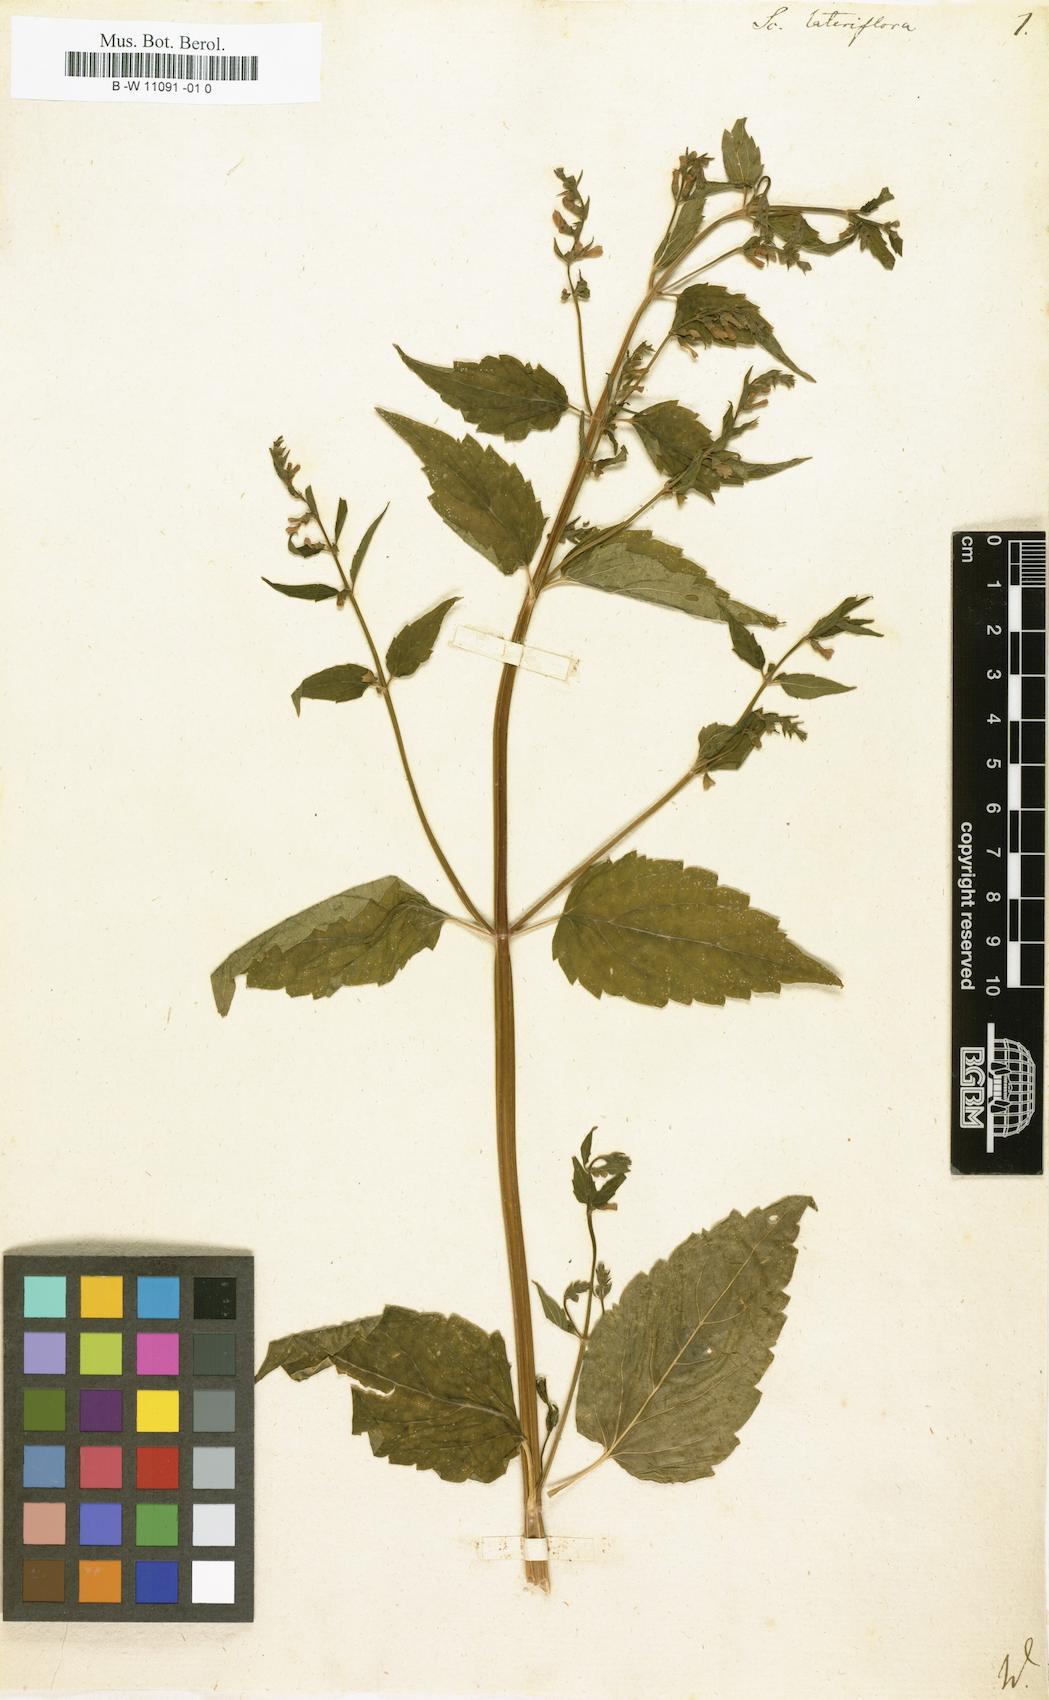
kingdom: Plantae
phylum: Tracheophyta
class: Magnoliopsida
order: Lamiales
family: Lamiaceae
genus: Scutellaria
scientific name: Scutellaria lateriflora
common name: Blue skullcap
